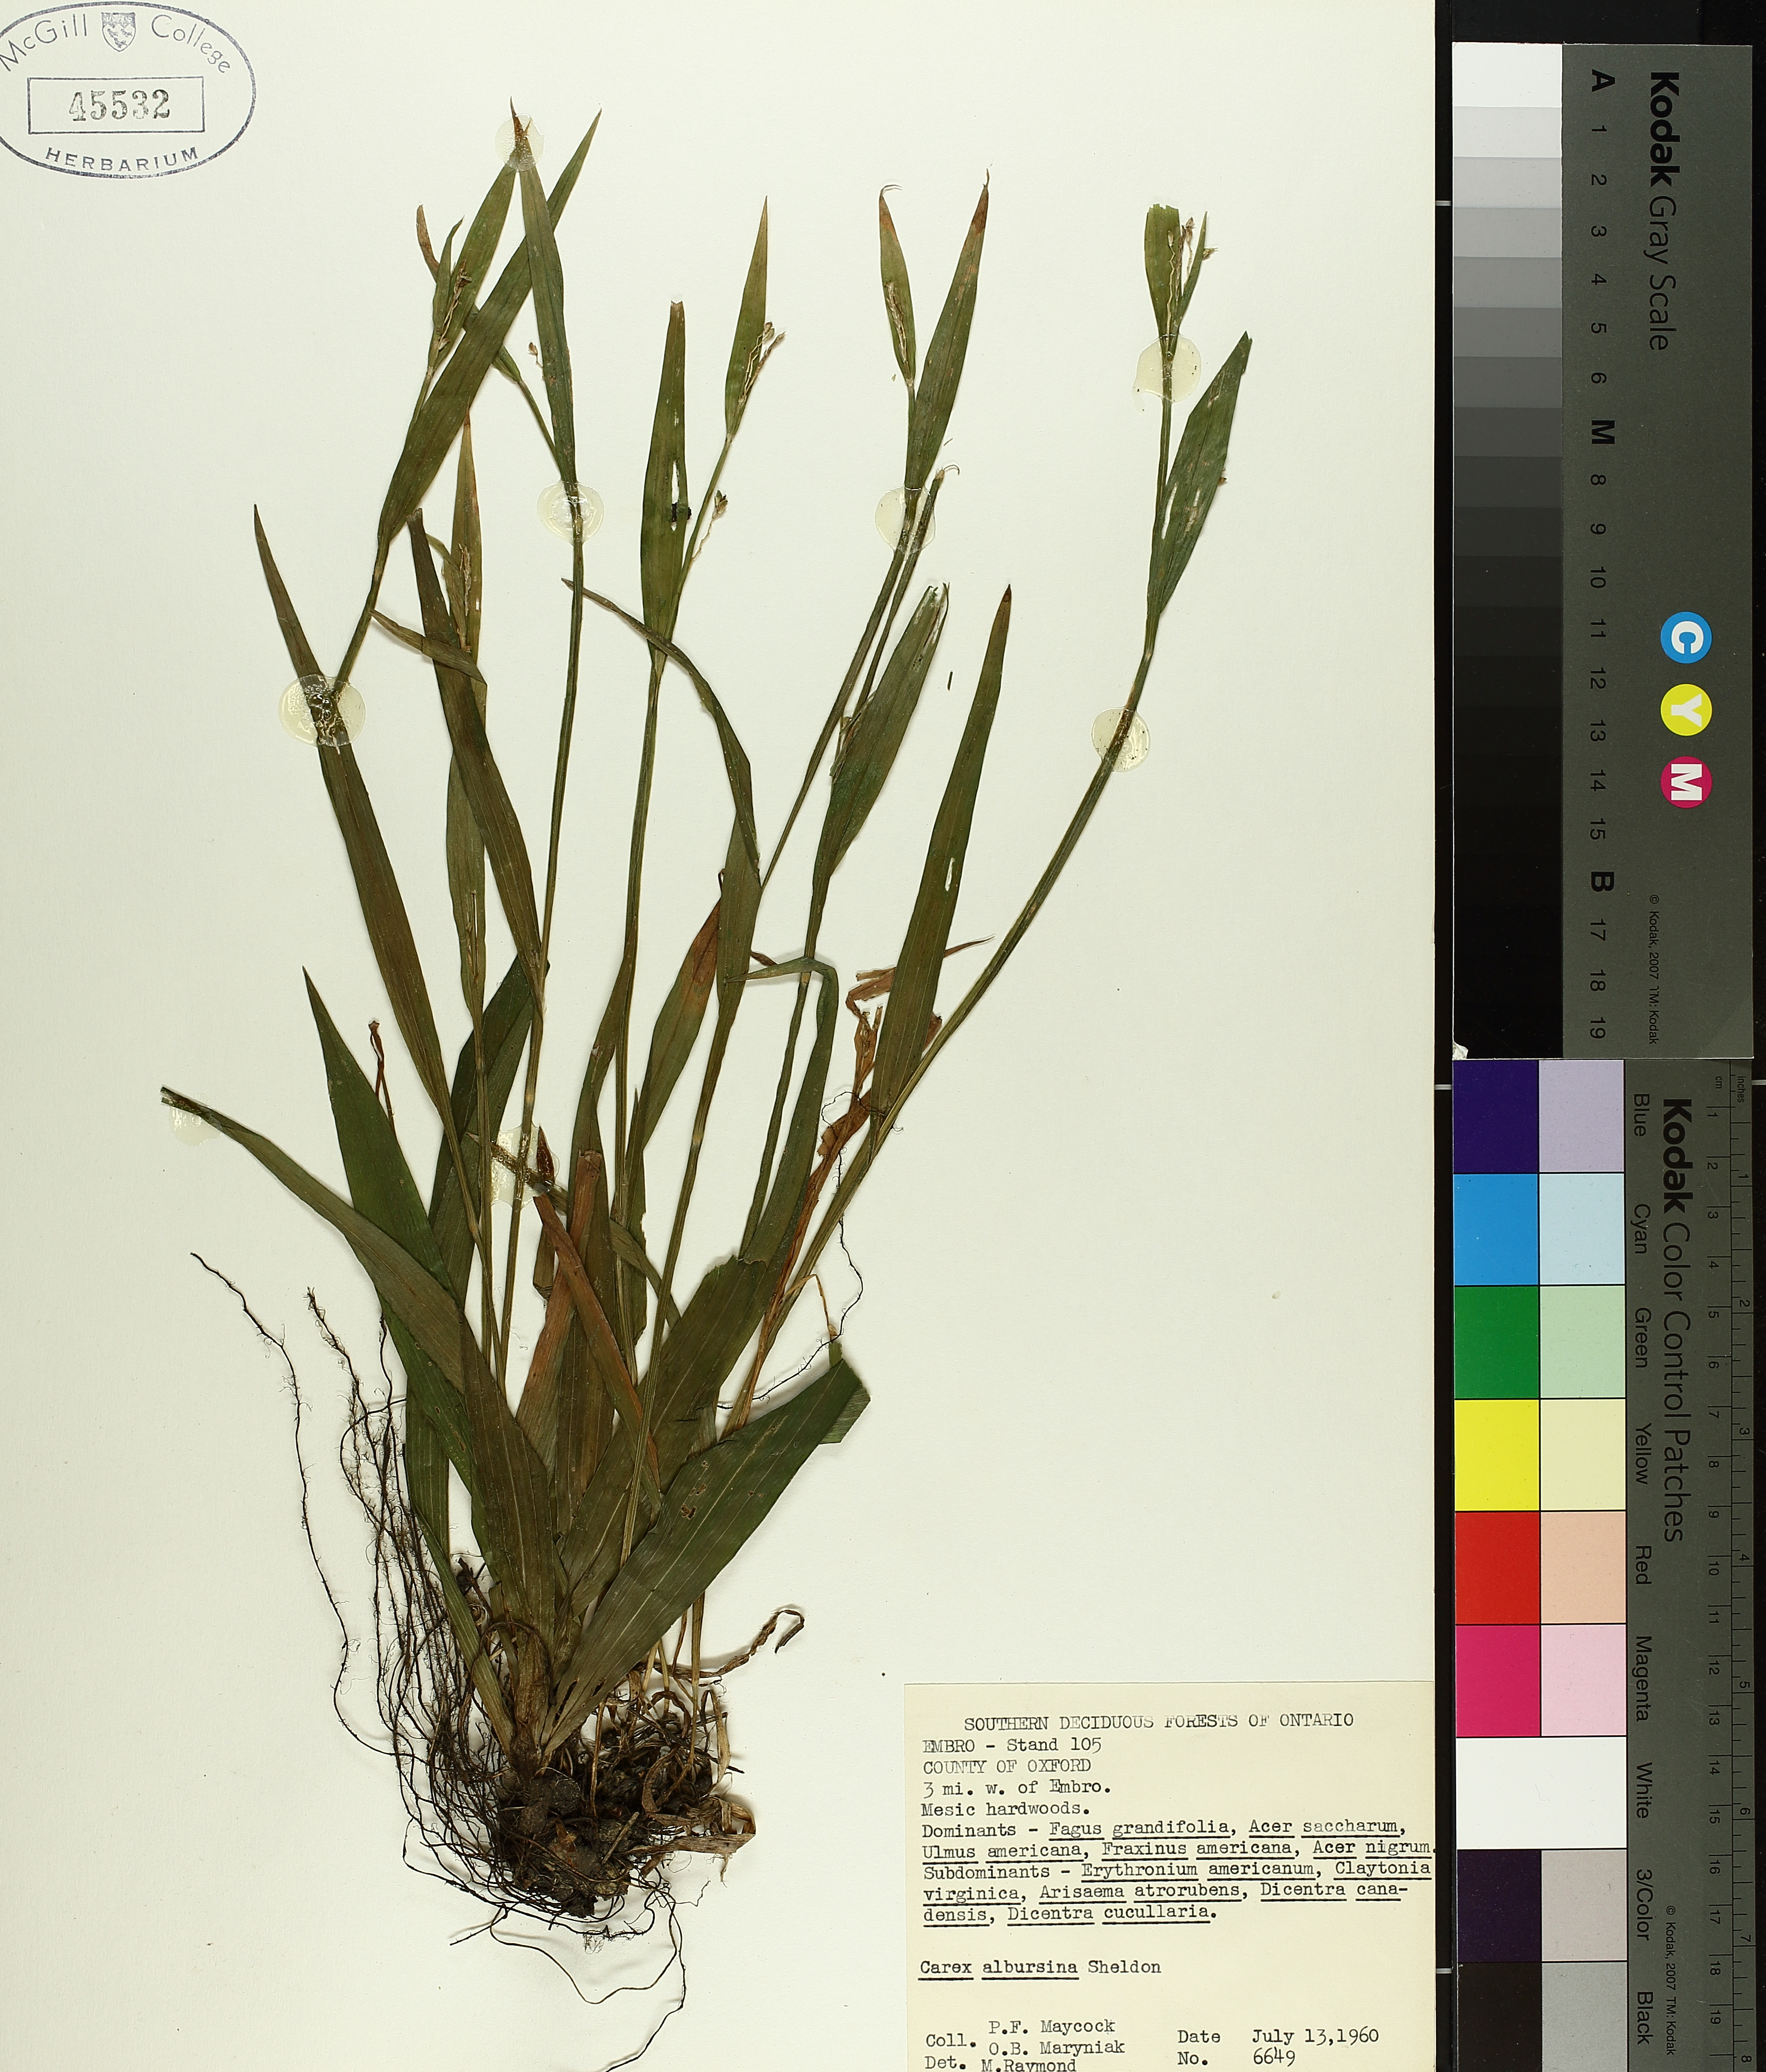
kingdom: Plantae
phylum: Tracheophyta
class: Liliopsida
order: Poales
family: Cyperaceae
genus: Carex
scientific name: Carex albursina
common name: Blunt-scale wood sedge
